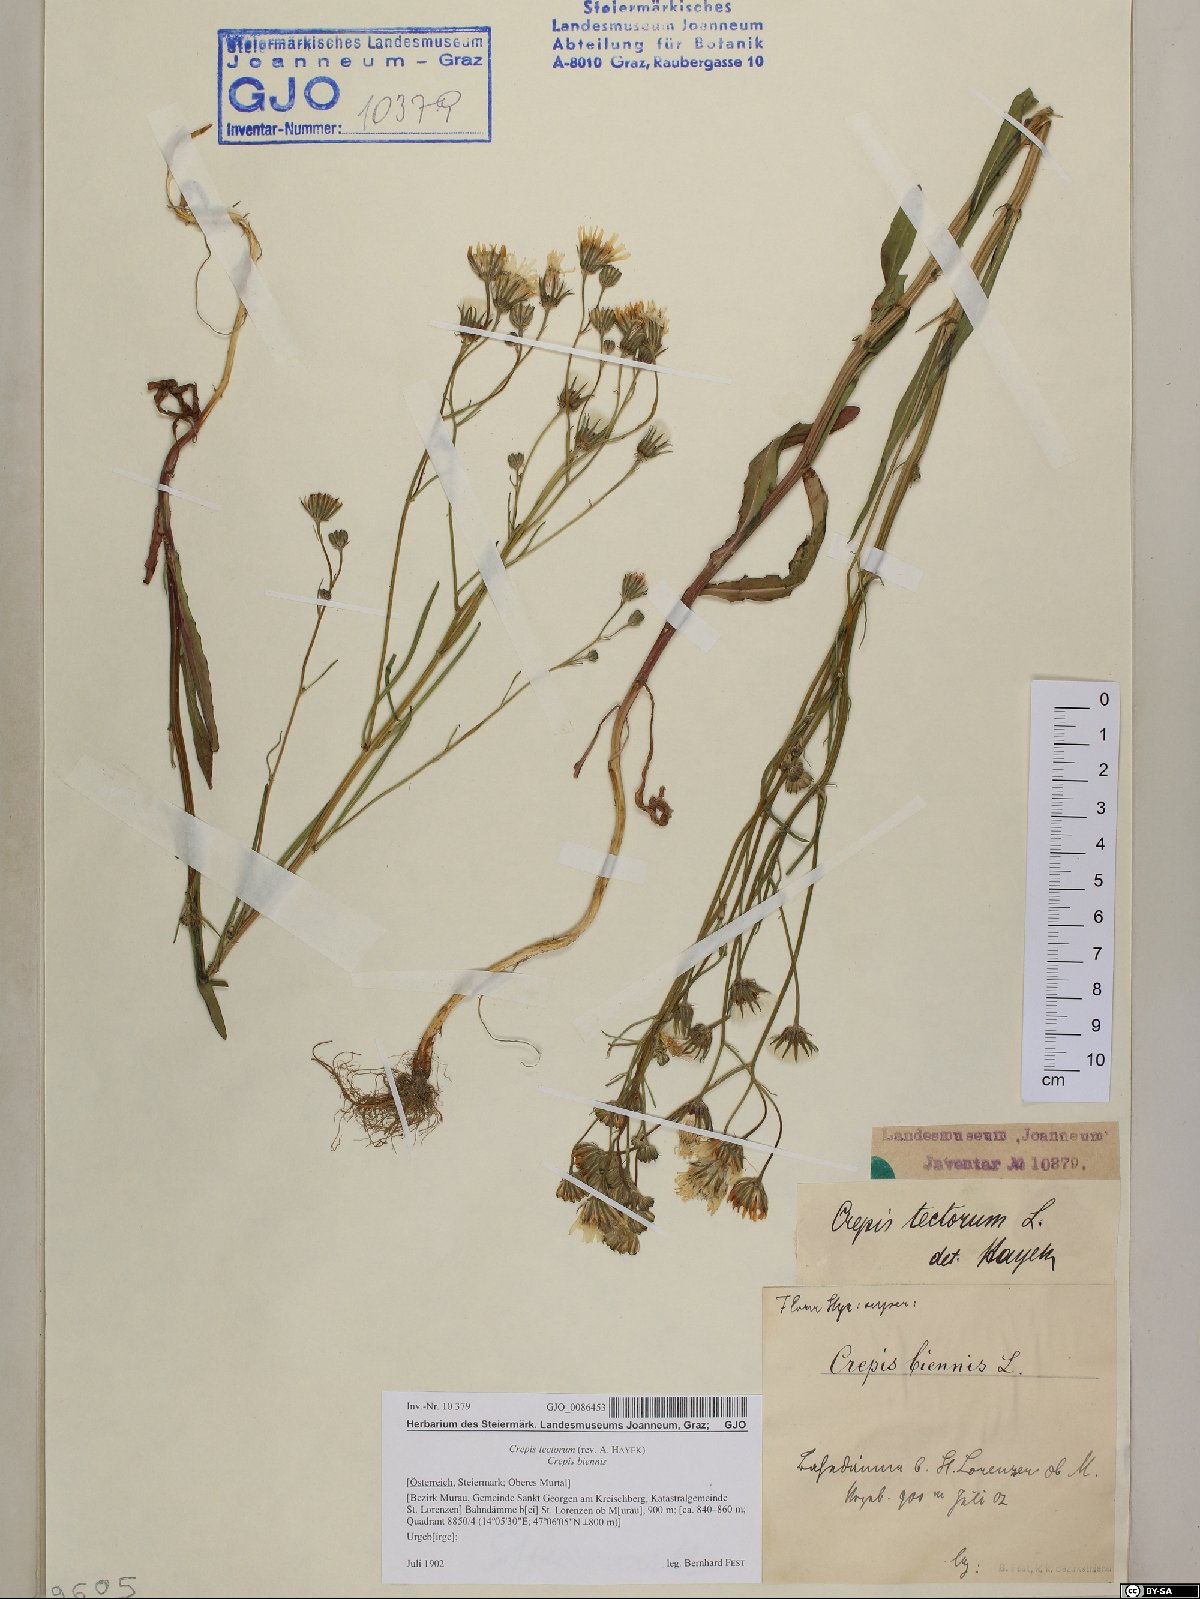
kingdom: Plantae
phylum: Tracheophyta
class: Magnoliopsida
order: Asterales
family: Asteraceae
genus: Crepis
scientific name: Crepis tectorum
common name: Narrow-leaved hawk's-beard
